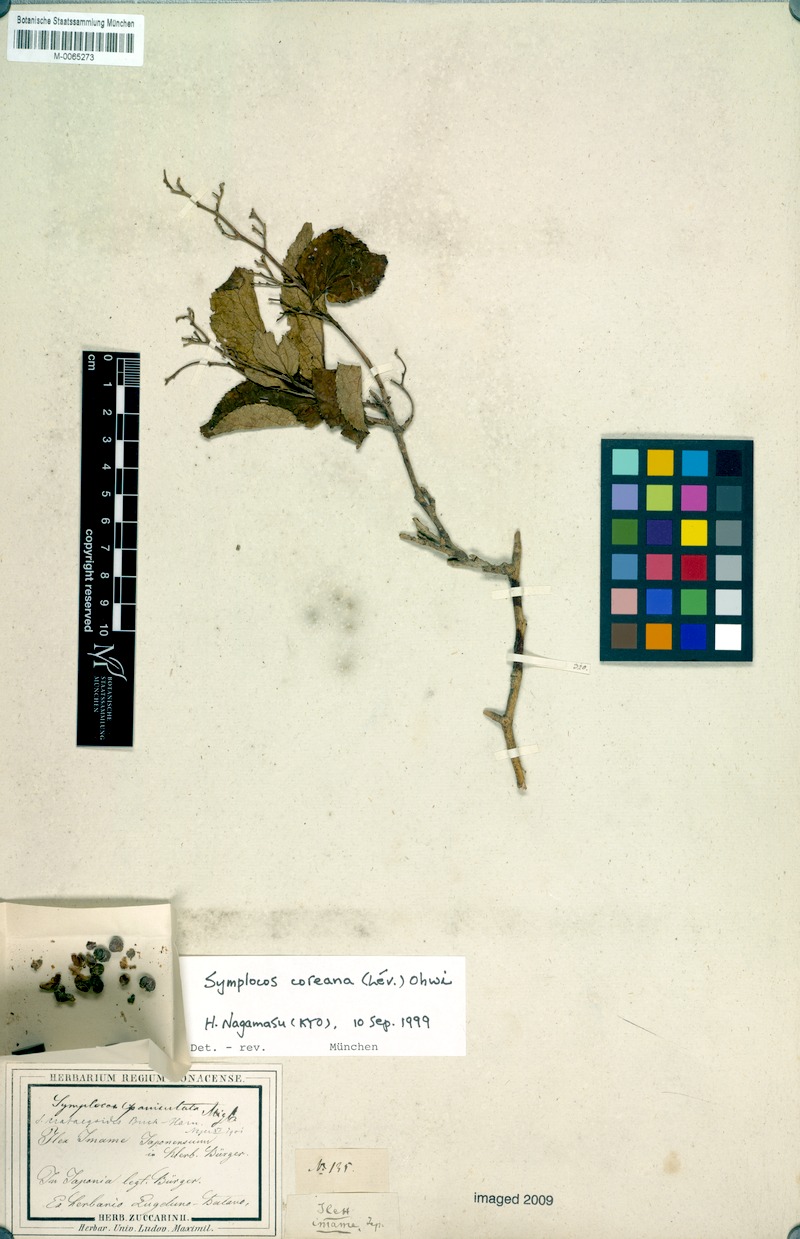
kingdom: Plantae
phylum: Tracheophyta
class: Magnoliopsida
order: Ericales
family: Symplocaceae
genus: Symplocos
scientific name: Symplocos coreana
